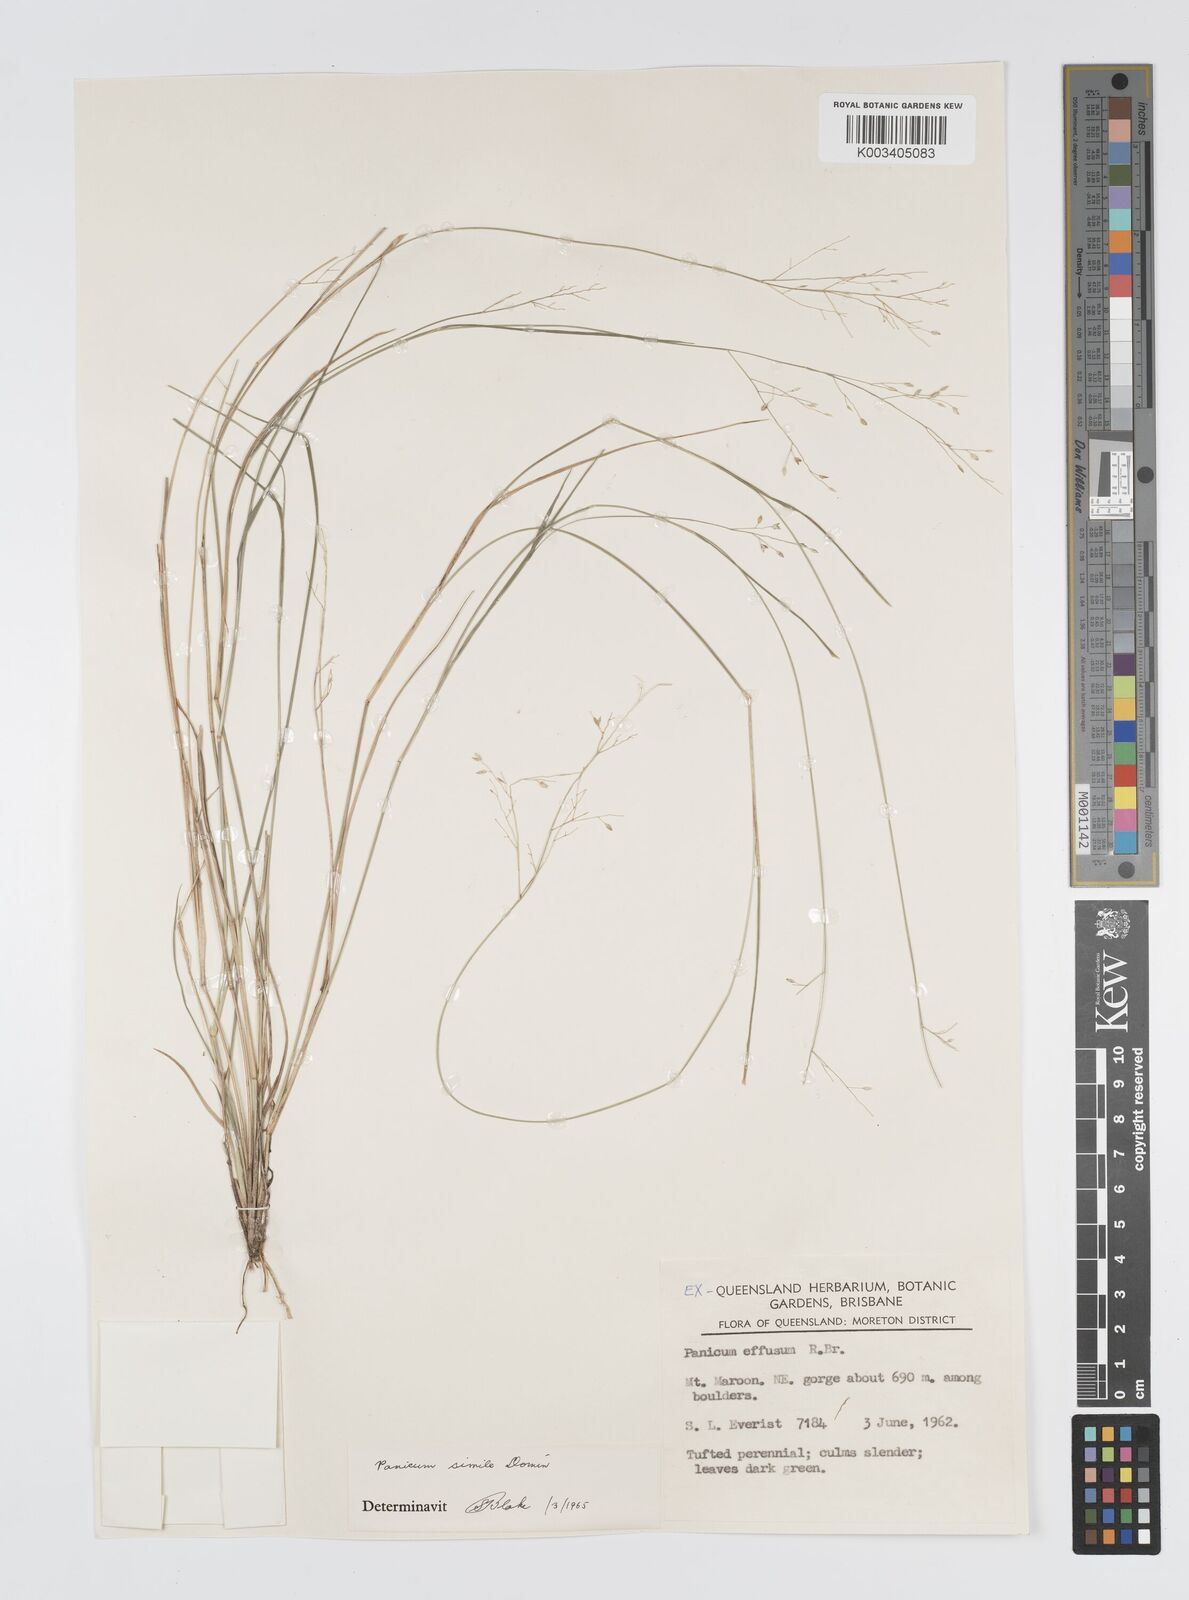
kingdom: Plantae
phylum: Tracheophyta
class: Liliopsida
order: Poales
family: Poaceae
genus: Panicum
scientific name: Panicum simile
